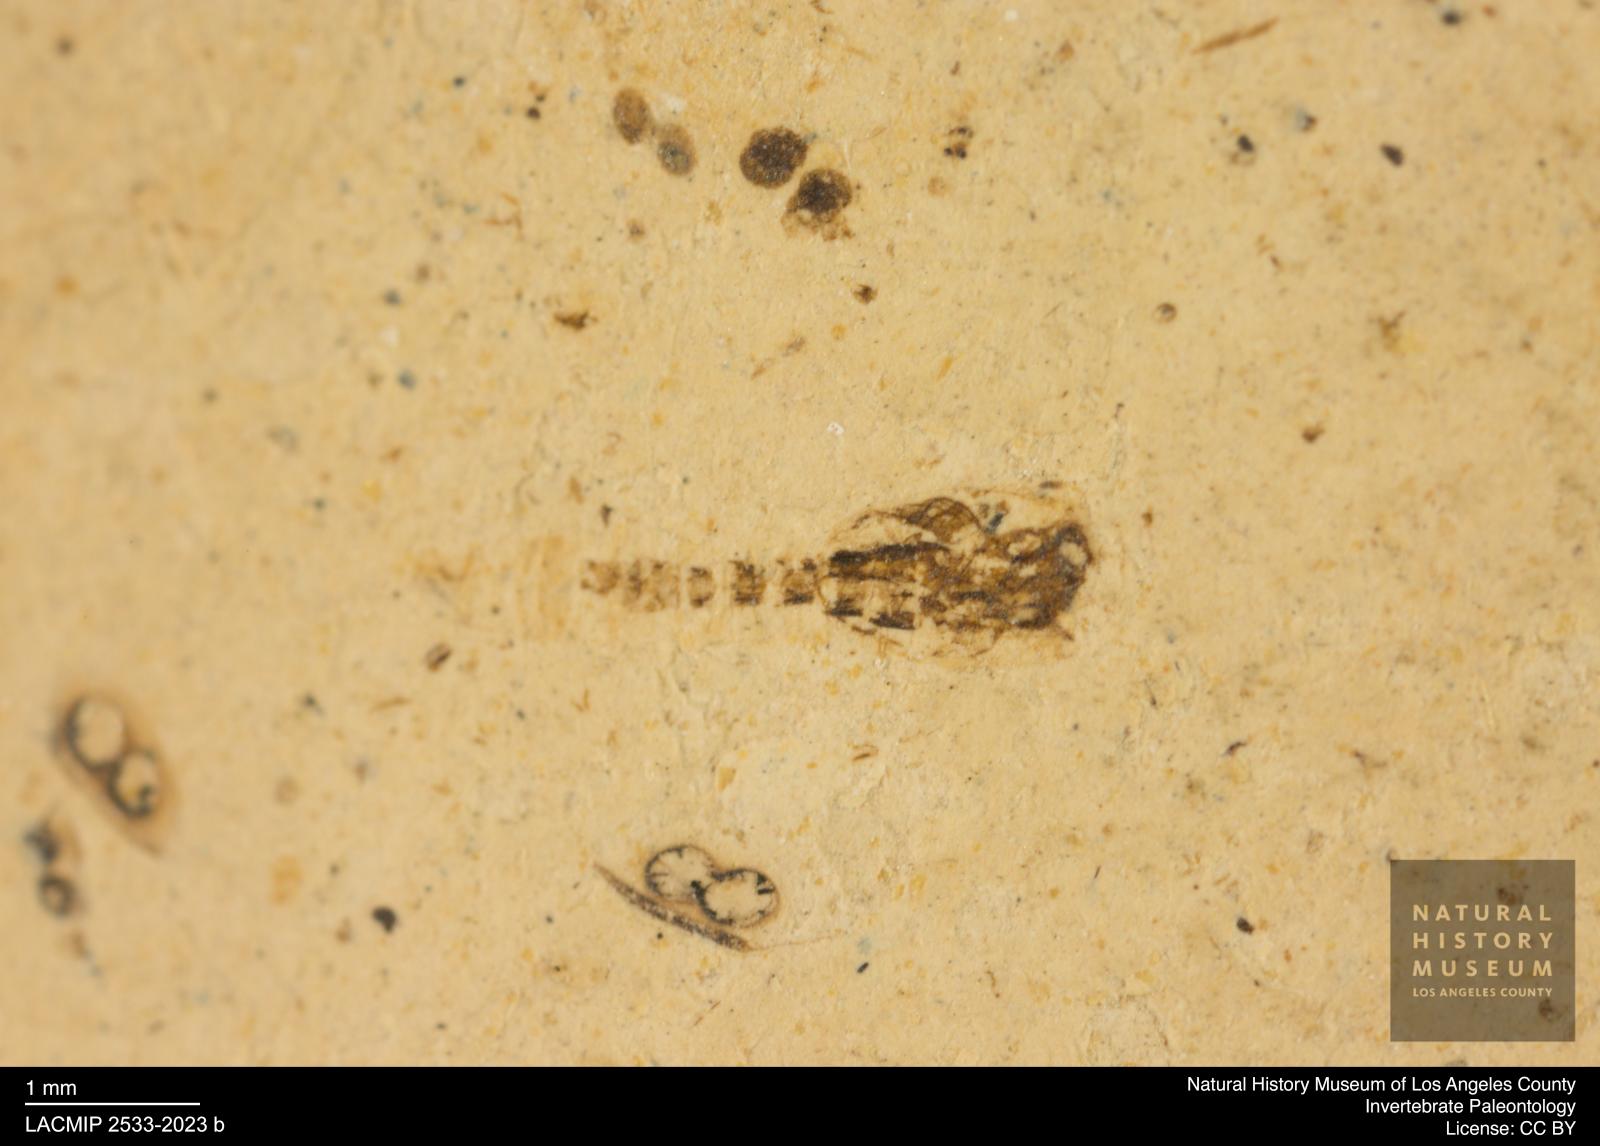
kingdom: Animalia
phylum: Arthropoda
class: Insecta
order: Diptera
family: Ceratopogonidae
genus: Ceratopogon
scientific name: Ceratopogon
